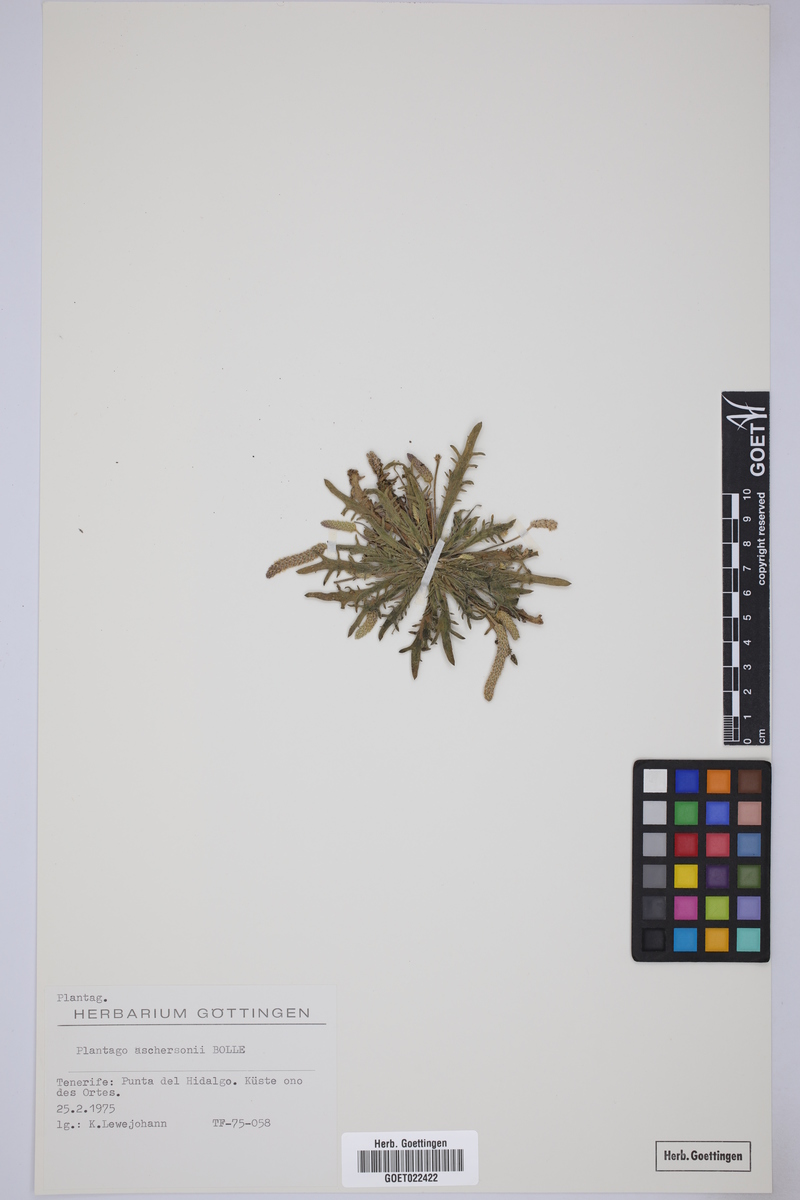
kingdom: Plantae
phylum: Tracheophyta
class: Magnoliopsida
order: Lamiales
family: Plantaginaceae
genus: Plantago
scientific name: Plantago coronopus
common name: Buck's-horn plantain
